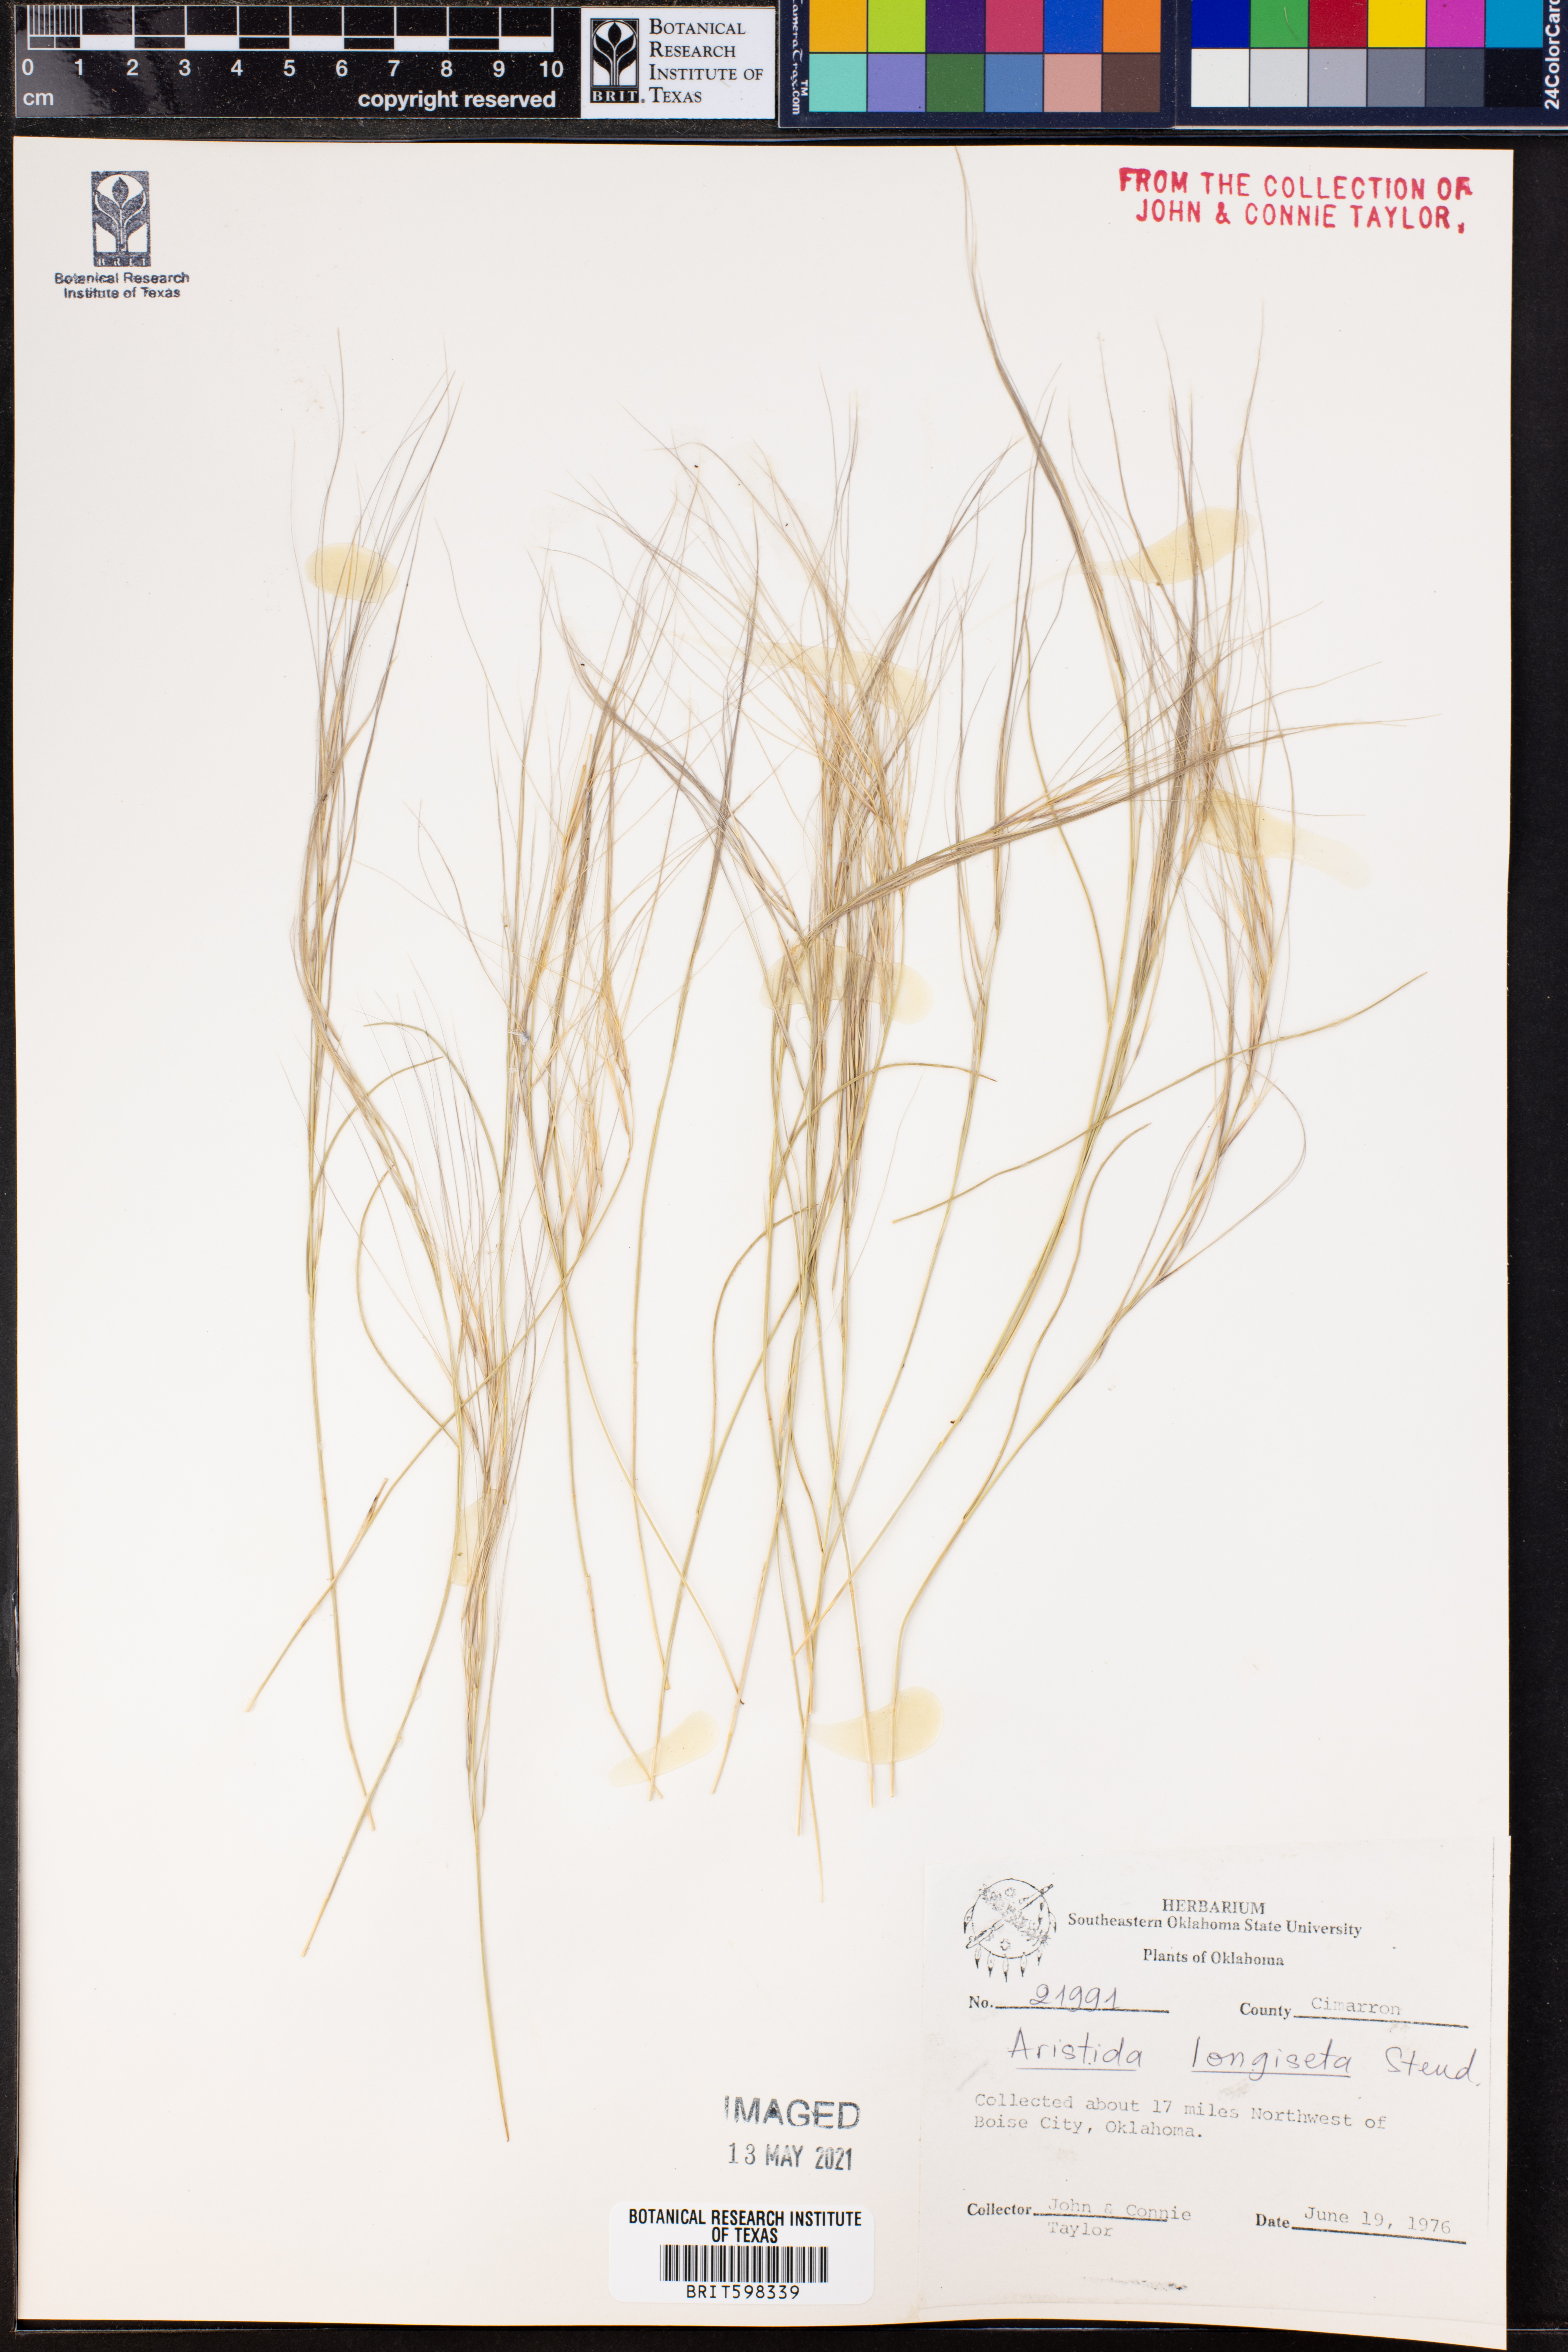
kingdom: Plantae
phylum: Tracheophyta
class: Liliopsida
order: Poales
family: Poaceae
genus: Aristida
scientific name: Aristida longiseta
